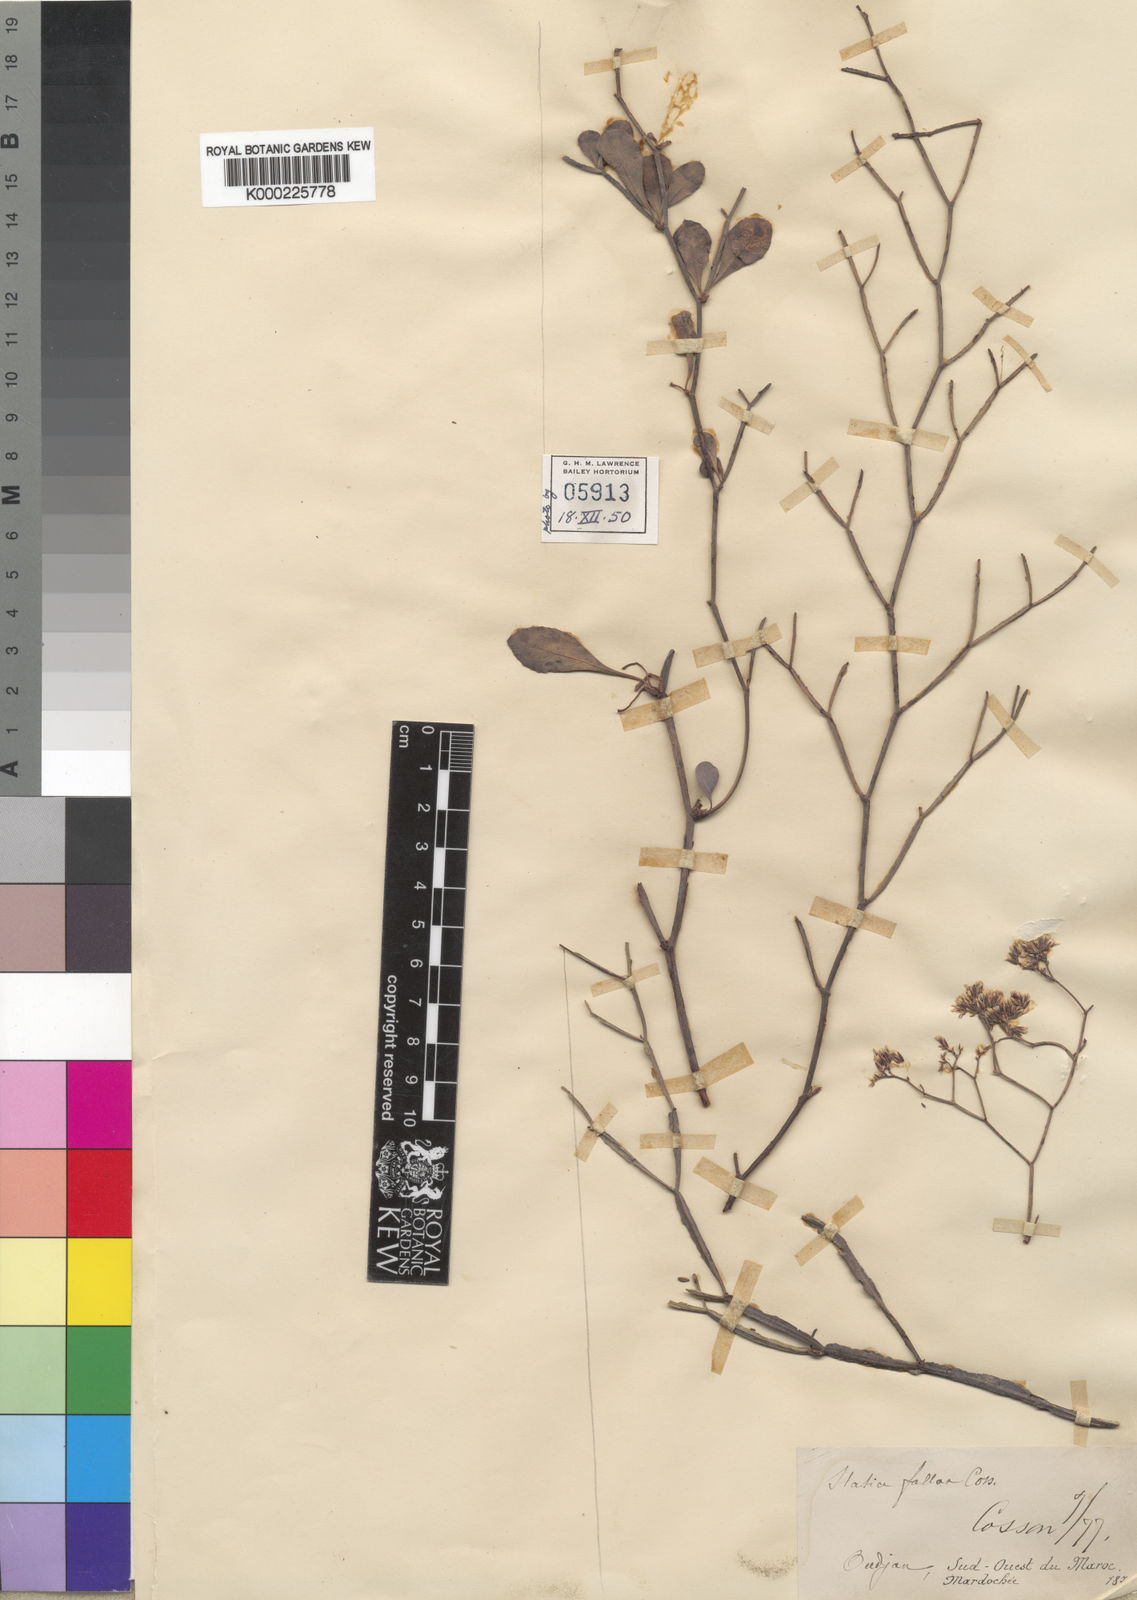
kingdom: Plantae
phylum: Tracheophyta
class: Magnoliopsida
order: Caryophyllales
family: Plumbaginaceae
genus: Limonium
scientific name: Limonium fallax
